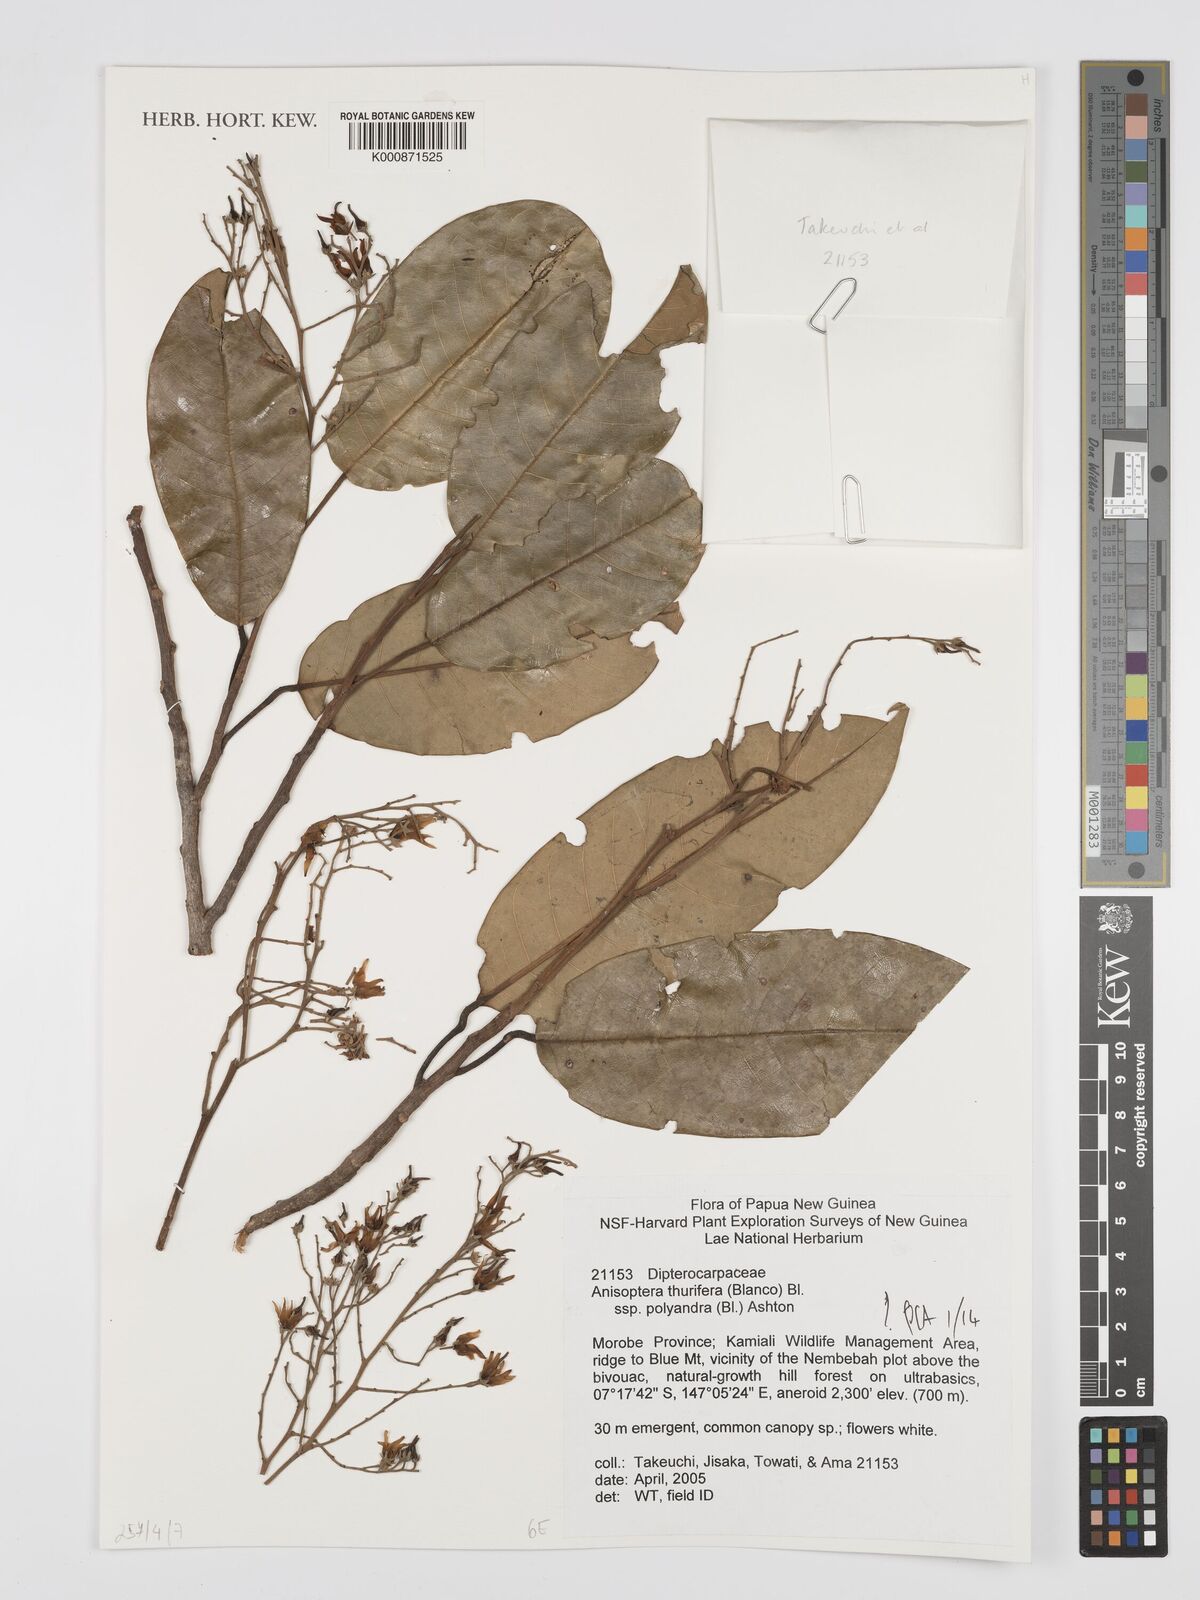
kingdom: Plantae
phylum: Tracheophyta
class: Magnoliopsida
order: Malvales
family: Dipterocarpaceae
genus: Anisoptera
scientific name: Anisoptera thurifera
